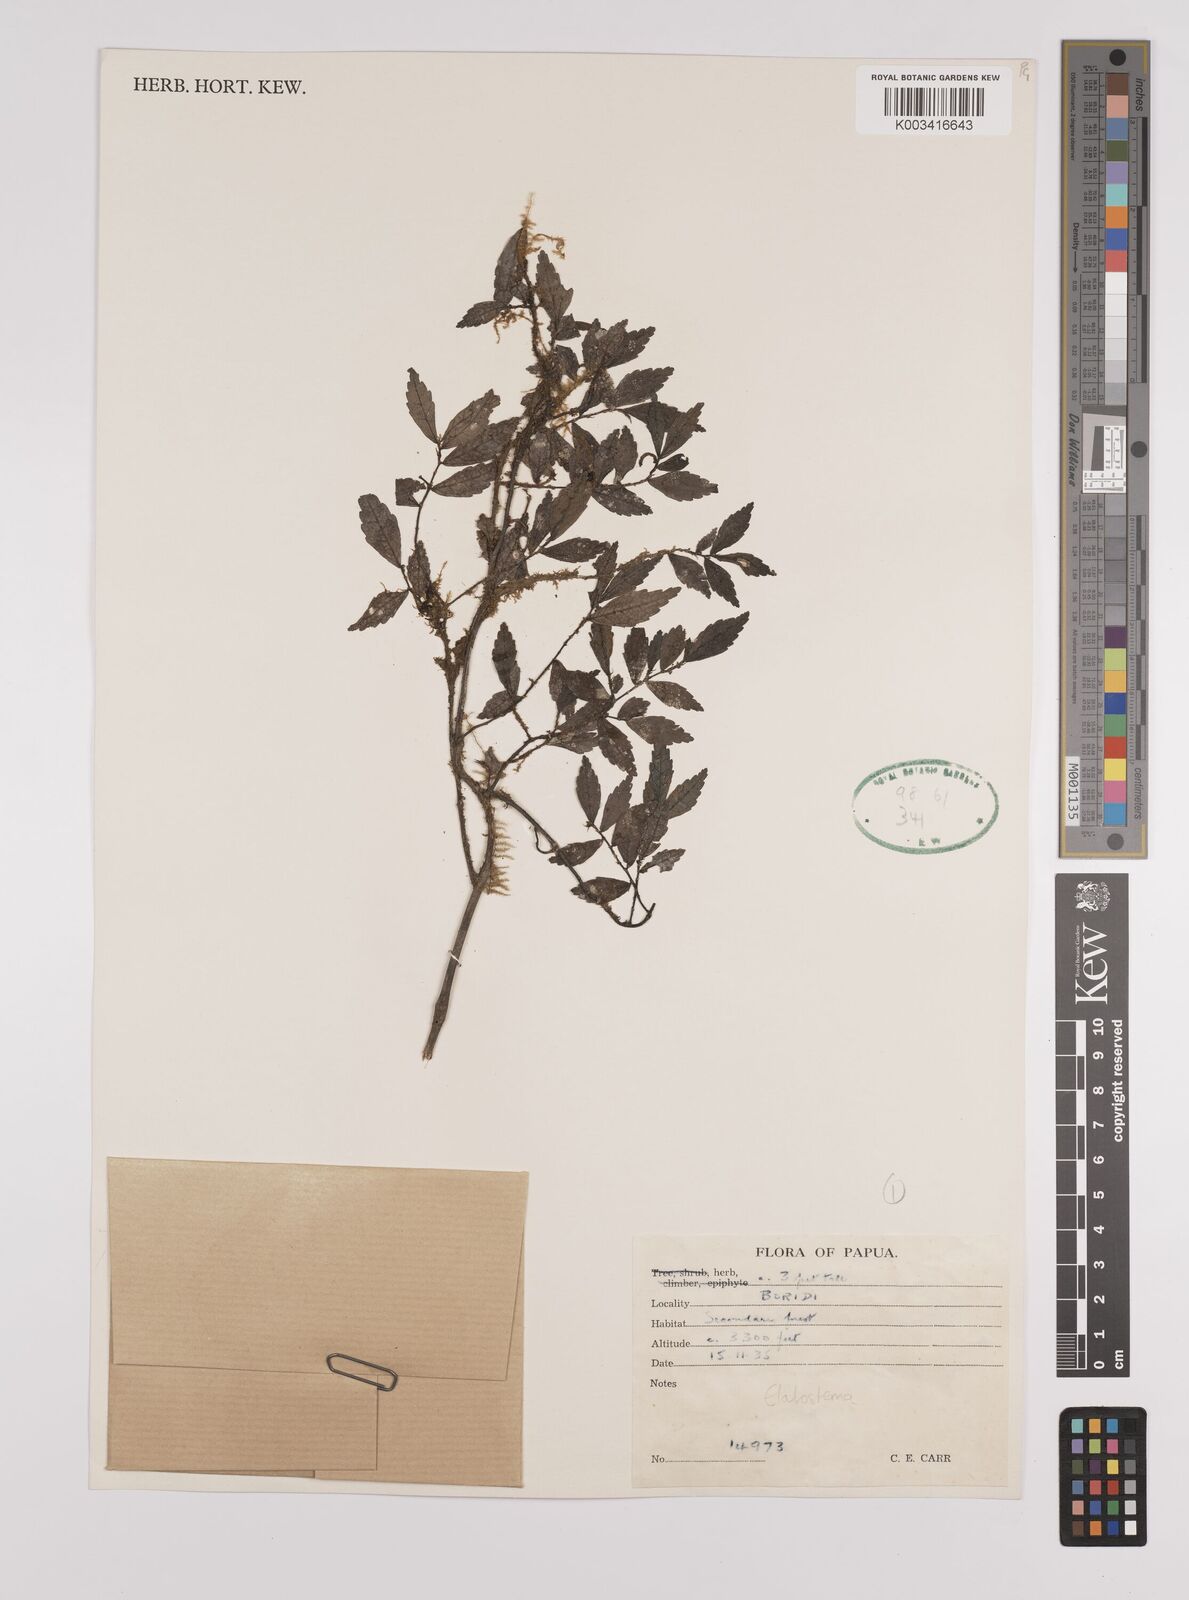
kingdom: Plantae
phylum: Tracheophyta
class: Magnoliopsida
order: Rosales
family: Urticaceae
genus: Elatostema
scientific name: Elatostema
